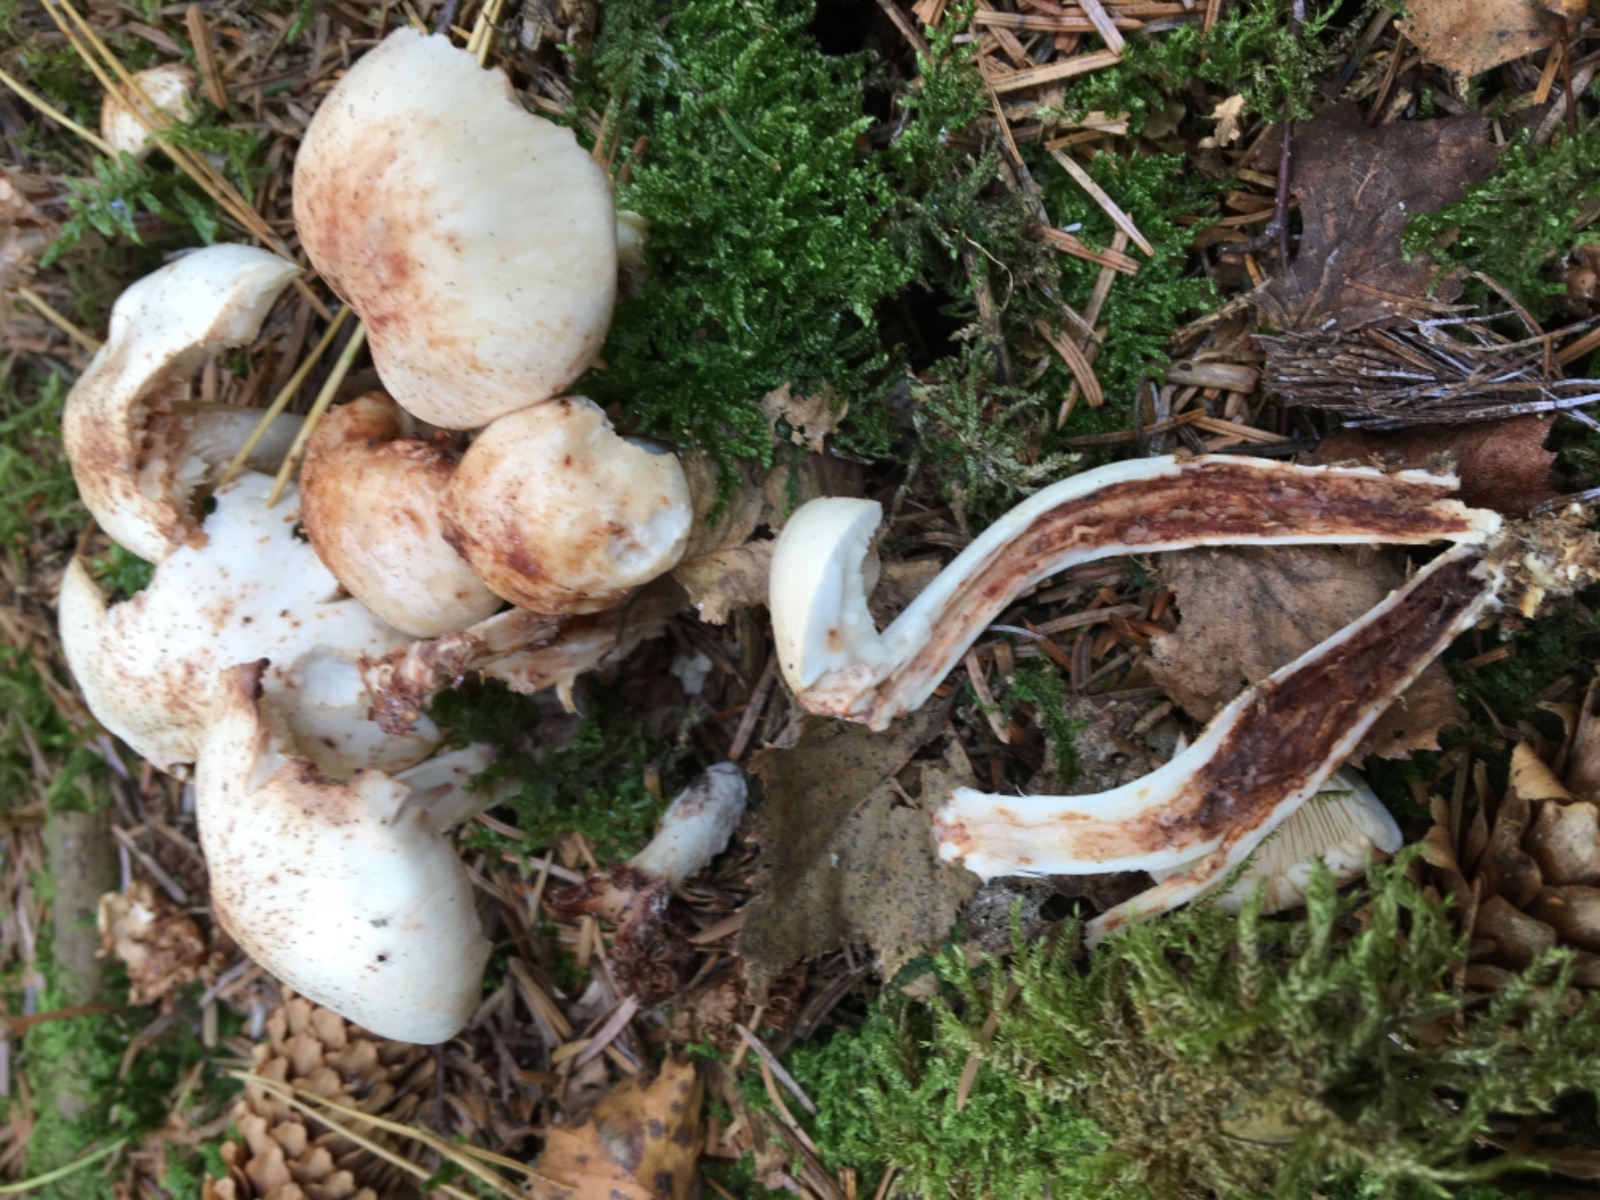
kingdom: Fungi
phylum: Basidiomycota
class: Agaricomycetes
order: Agaricales
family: Omphalotaceae
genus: Rhodocollybia
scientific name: Rhodocollybia maculata
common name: plettet fladhat
